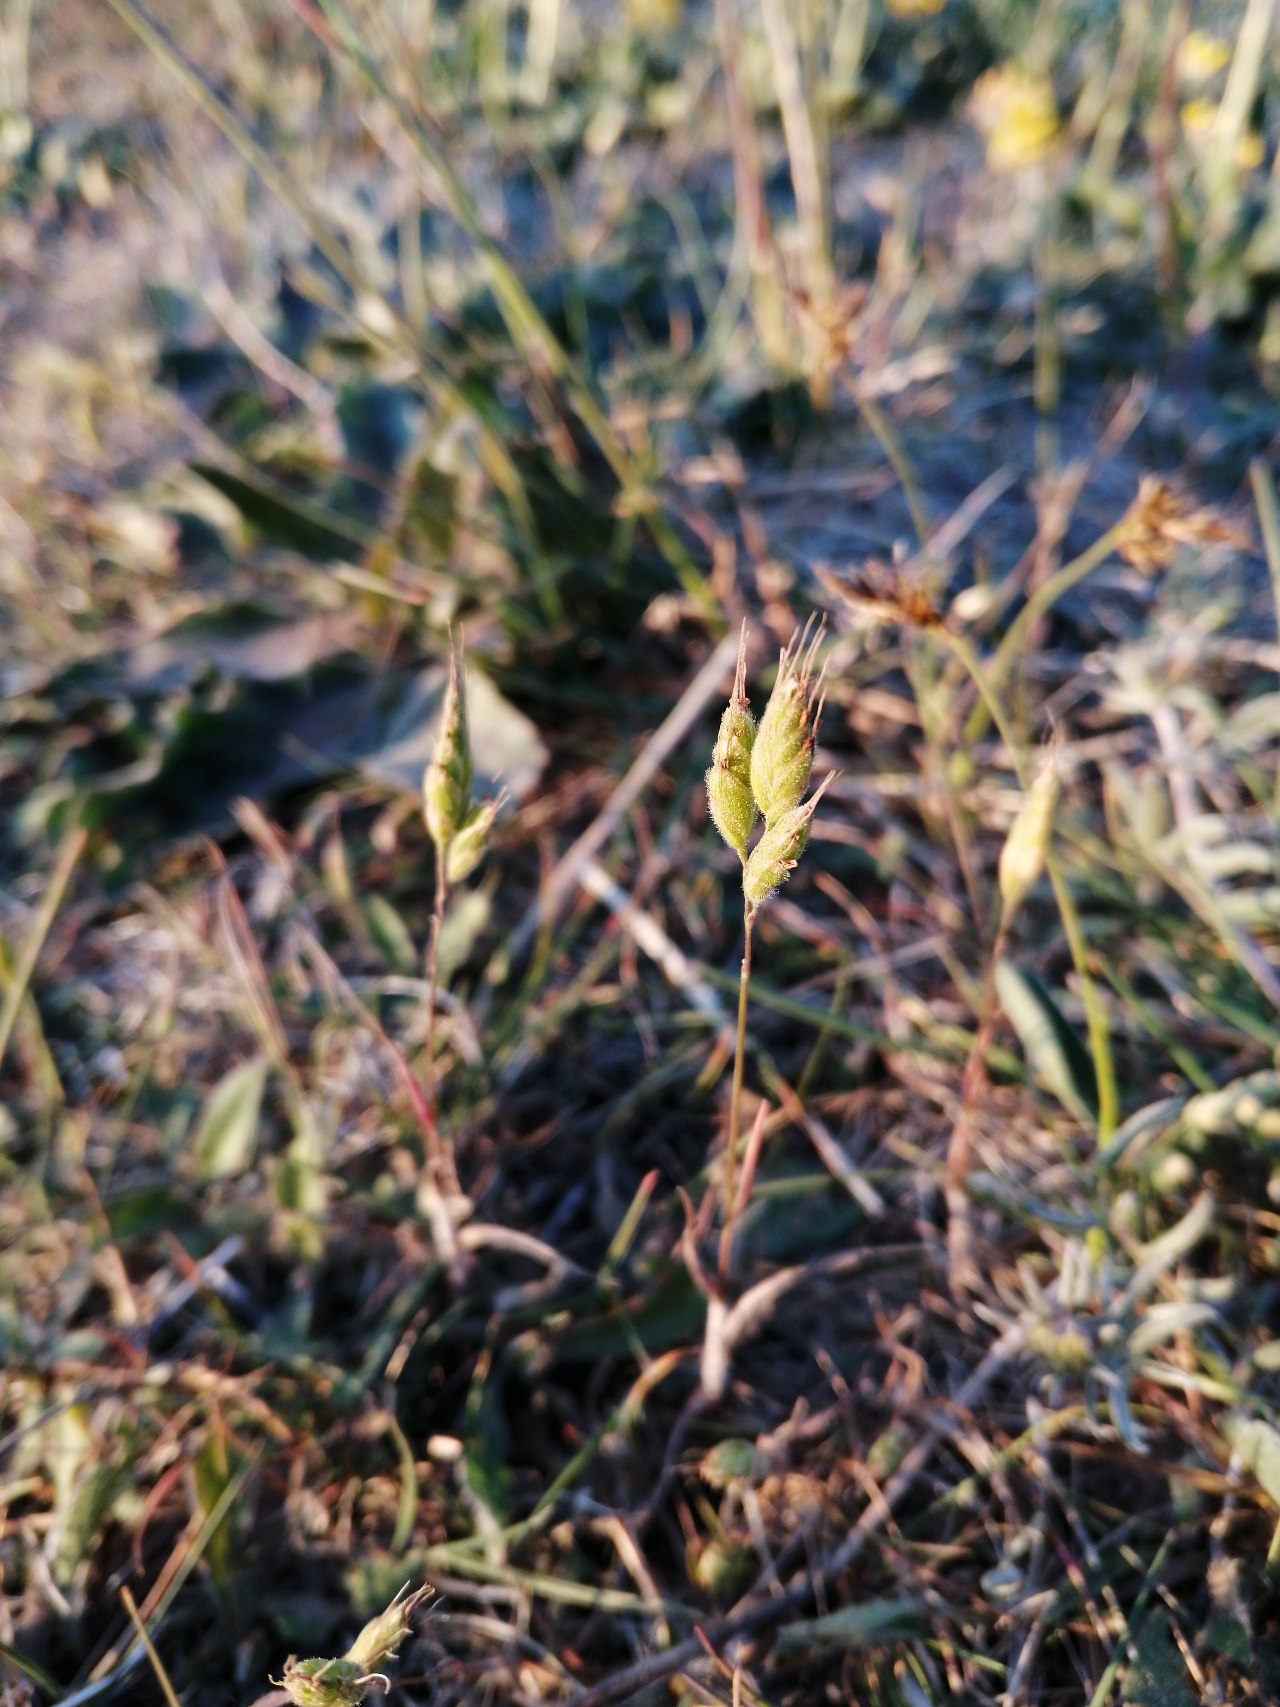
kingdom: Plantae
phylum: Tracheophyta
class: Liliopsida
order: Poales
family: Poaceae
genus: Bromus
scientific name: Bromus hordeaceus
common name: Blød hejre
